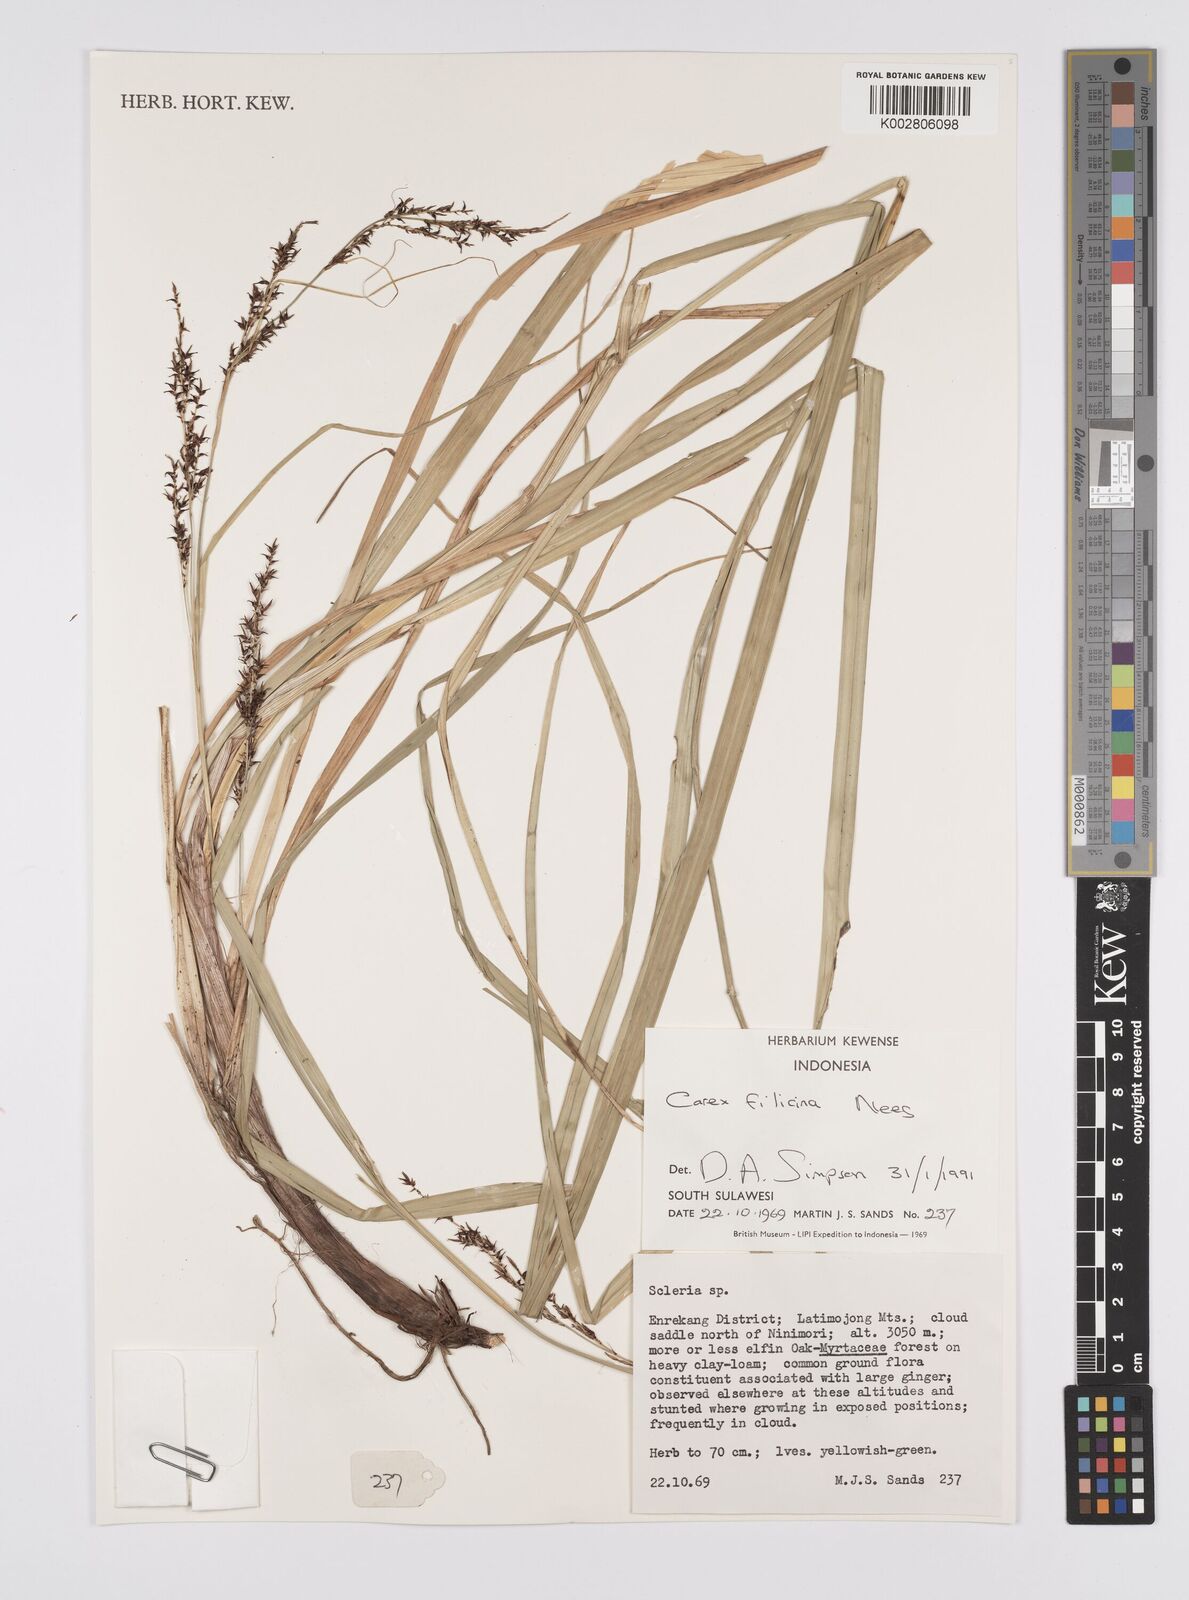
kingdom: Plantae
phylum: Tracheophyta
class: Liliopsida
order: Poales
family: Cyperaceae
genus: Carex
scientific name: Carex filicina
